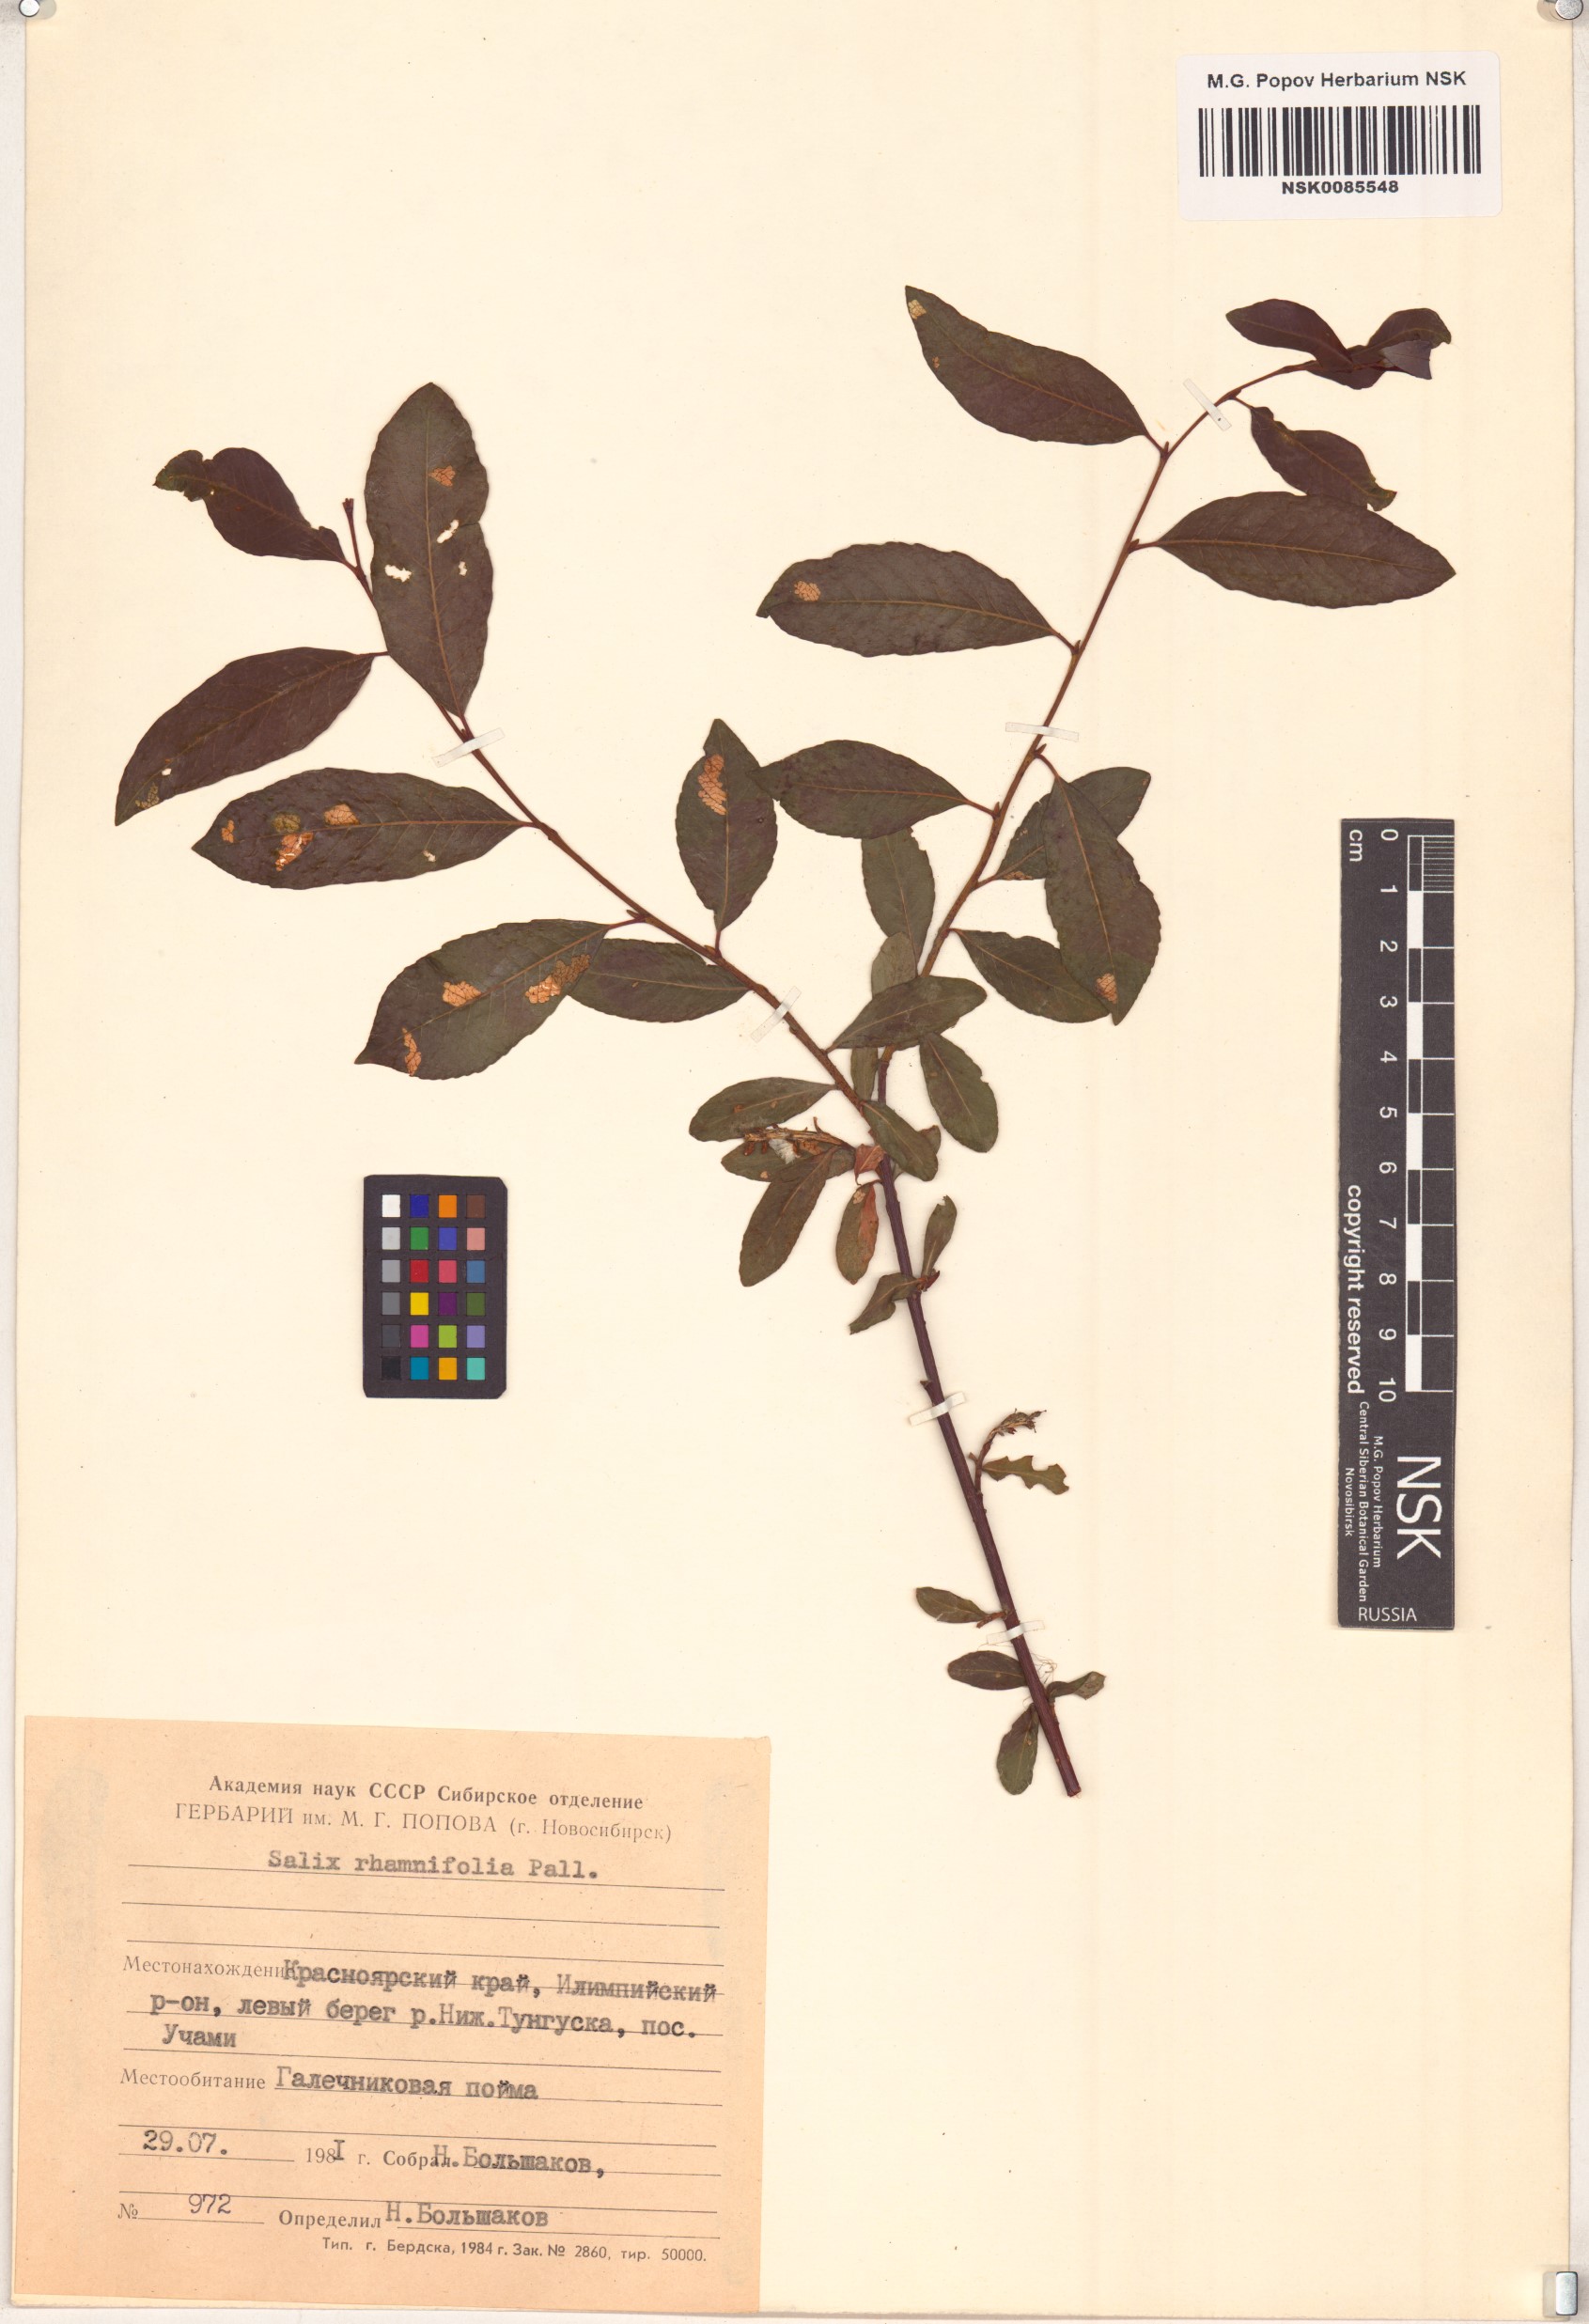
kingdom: Plantae
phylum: Tracheophyta
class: Magnoliopsida
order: Malpighiales
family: Salicaceae
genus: Salix
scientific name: Salix rhamnifolia
